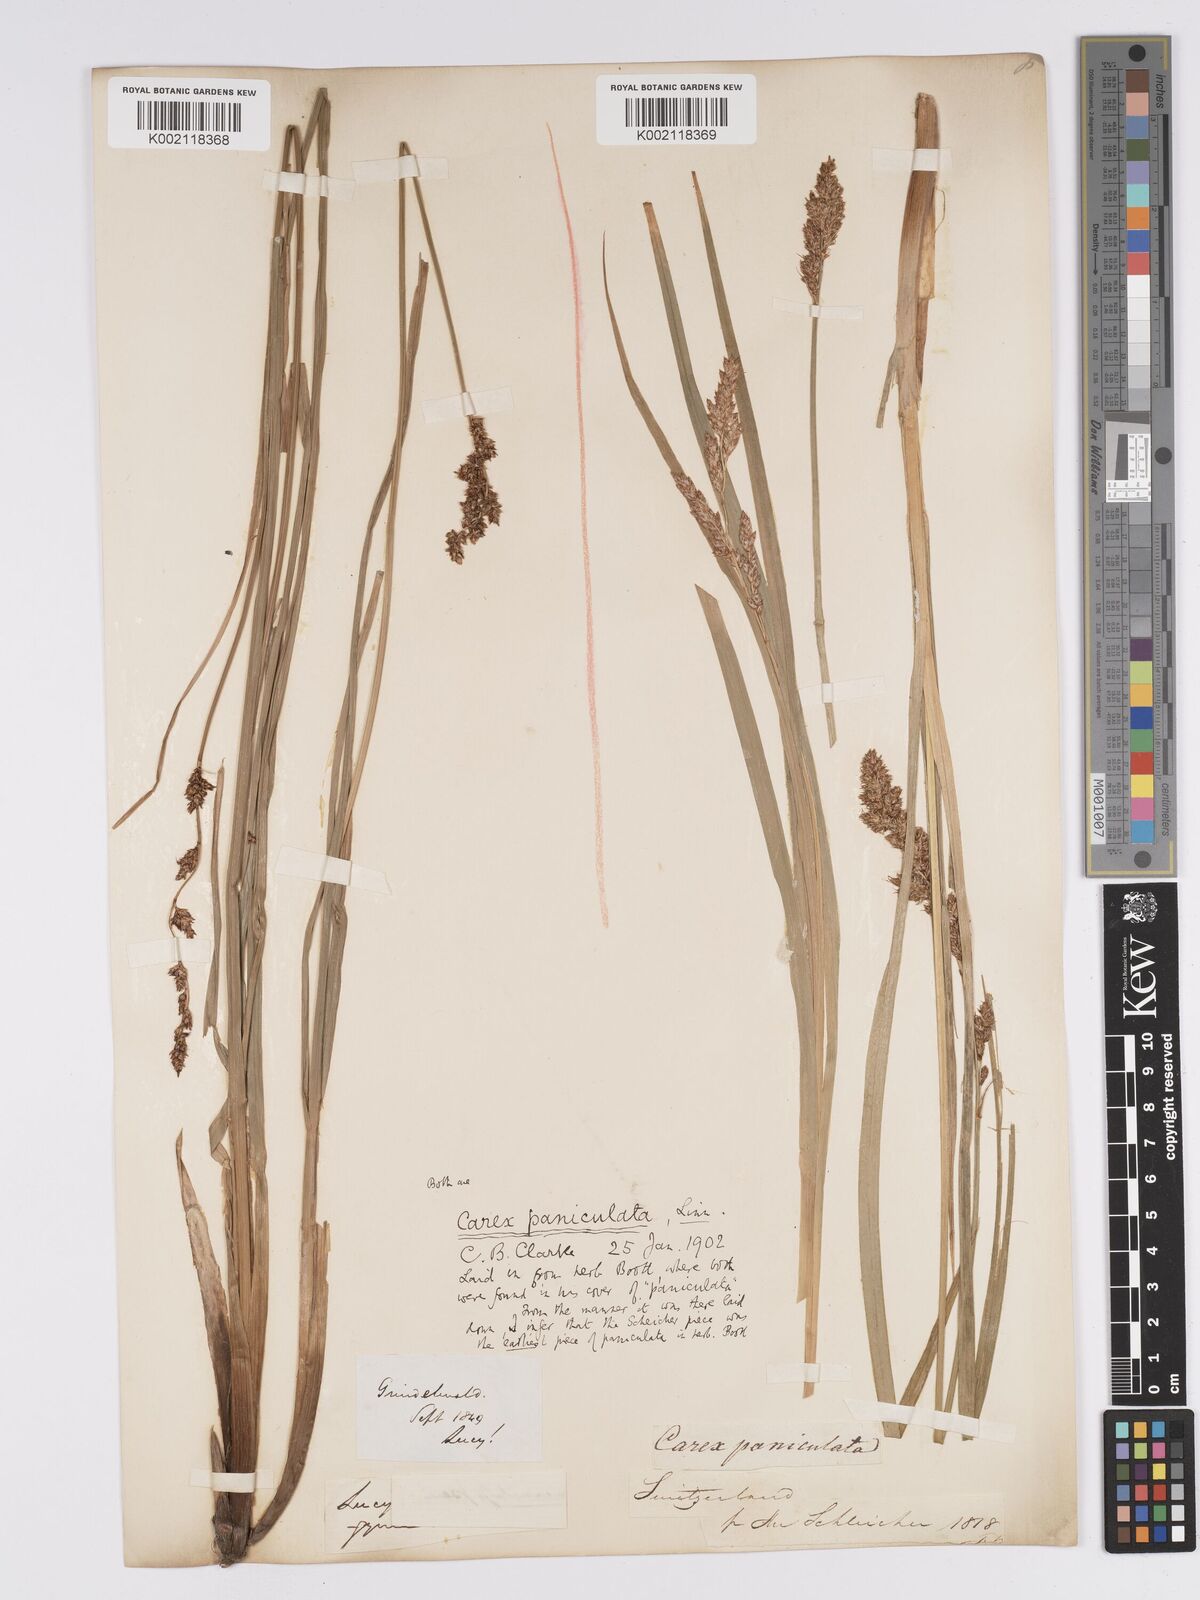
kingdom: Plantae
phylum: Tracheophyta
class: Liliopsida
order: Poales
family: Cyperaceae
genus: Carex
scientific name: Carex paniculata
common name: Greater tussock-sedge
